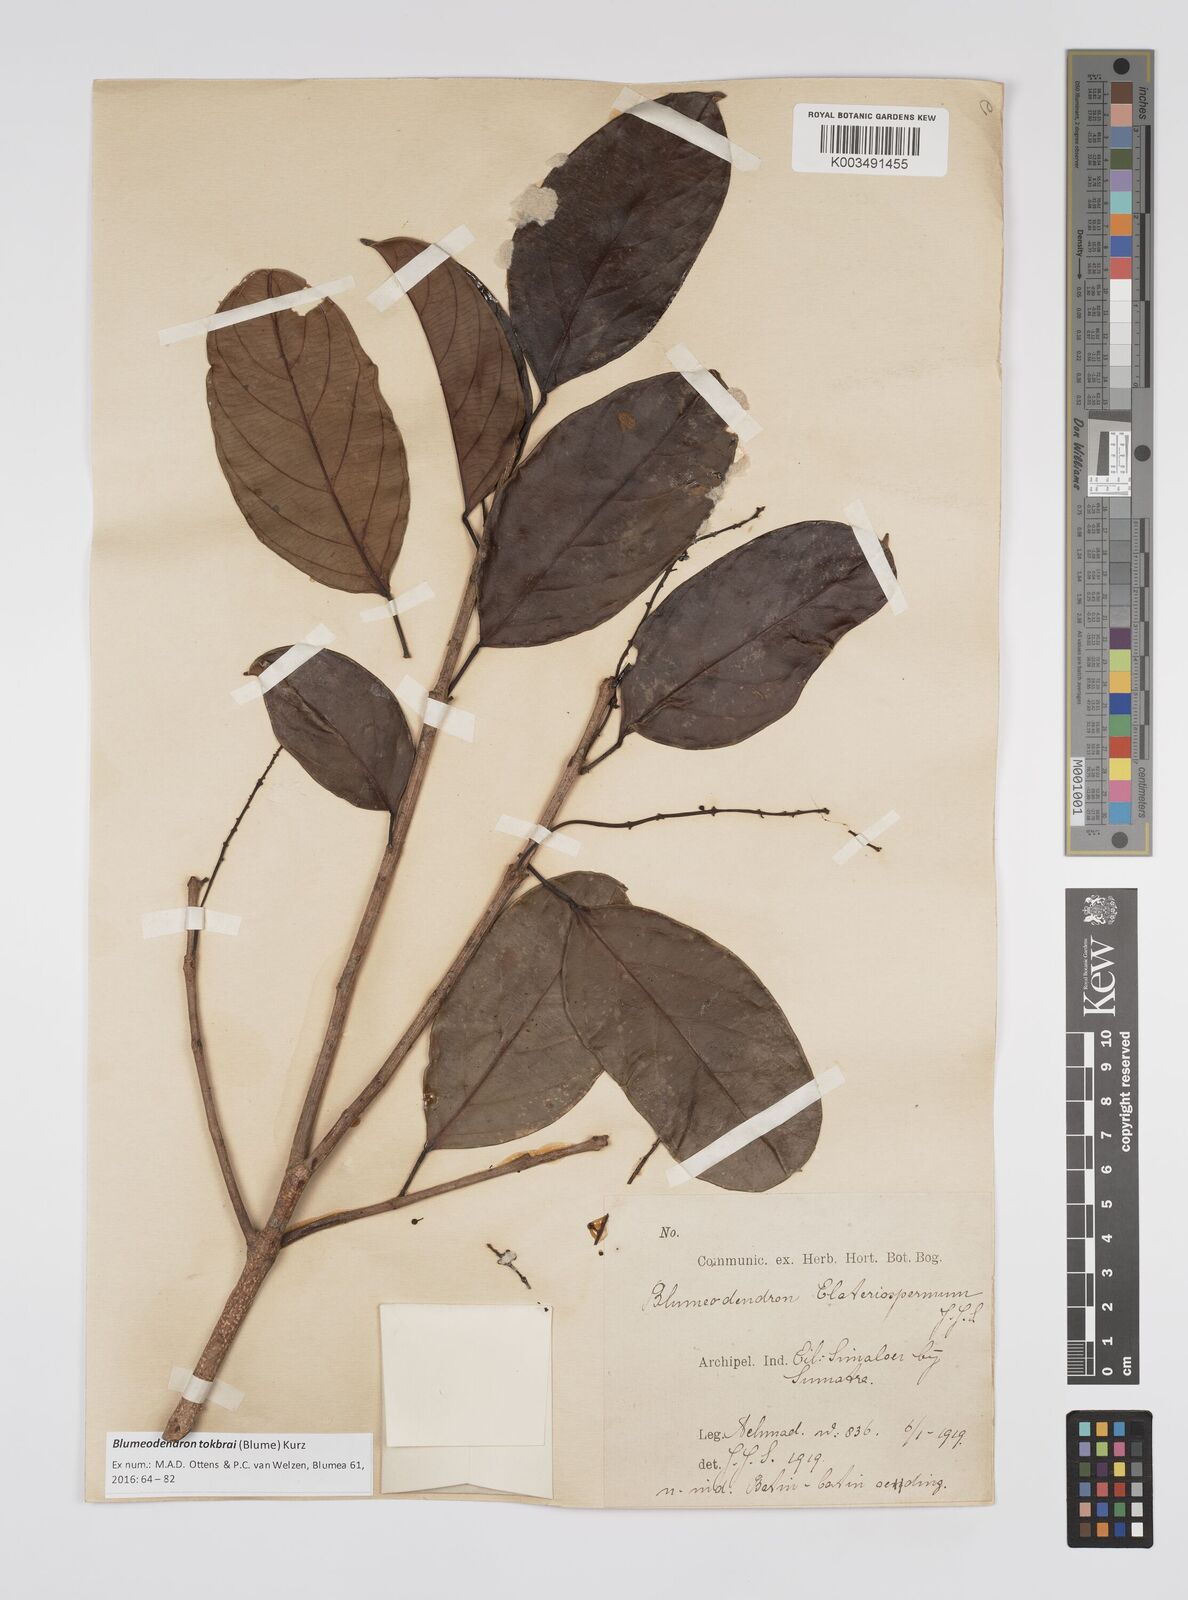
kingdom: Plantae
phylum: Tracheophyta
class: Magnoliopsida
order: Malpighiales
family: Euphorbiaceae
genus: Blumeodendron
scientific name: Blumeodendron tokbrai
